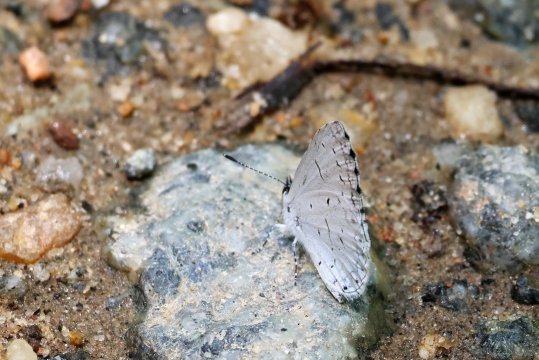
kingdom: Animalia
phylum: Arthropoda
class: Insecta
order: Lepidoptera
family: Lycaenidae
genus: Celastrina
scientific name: Celastrina neglectamajor
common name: Appalachian Azure
